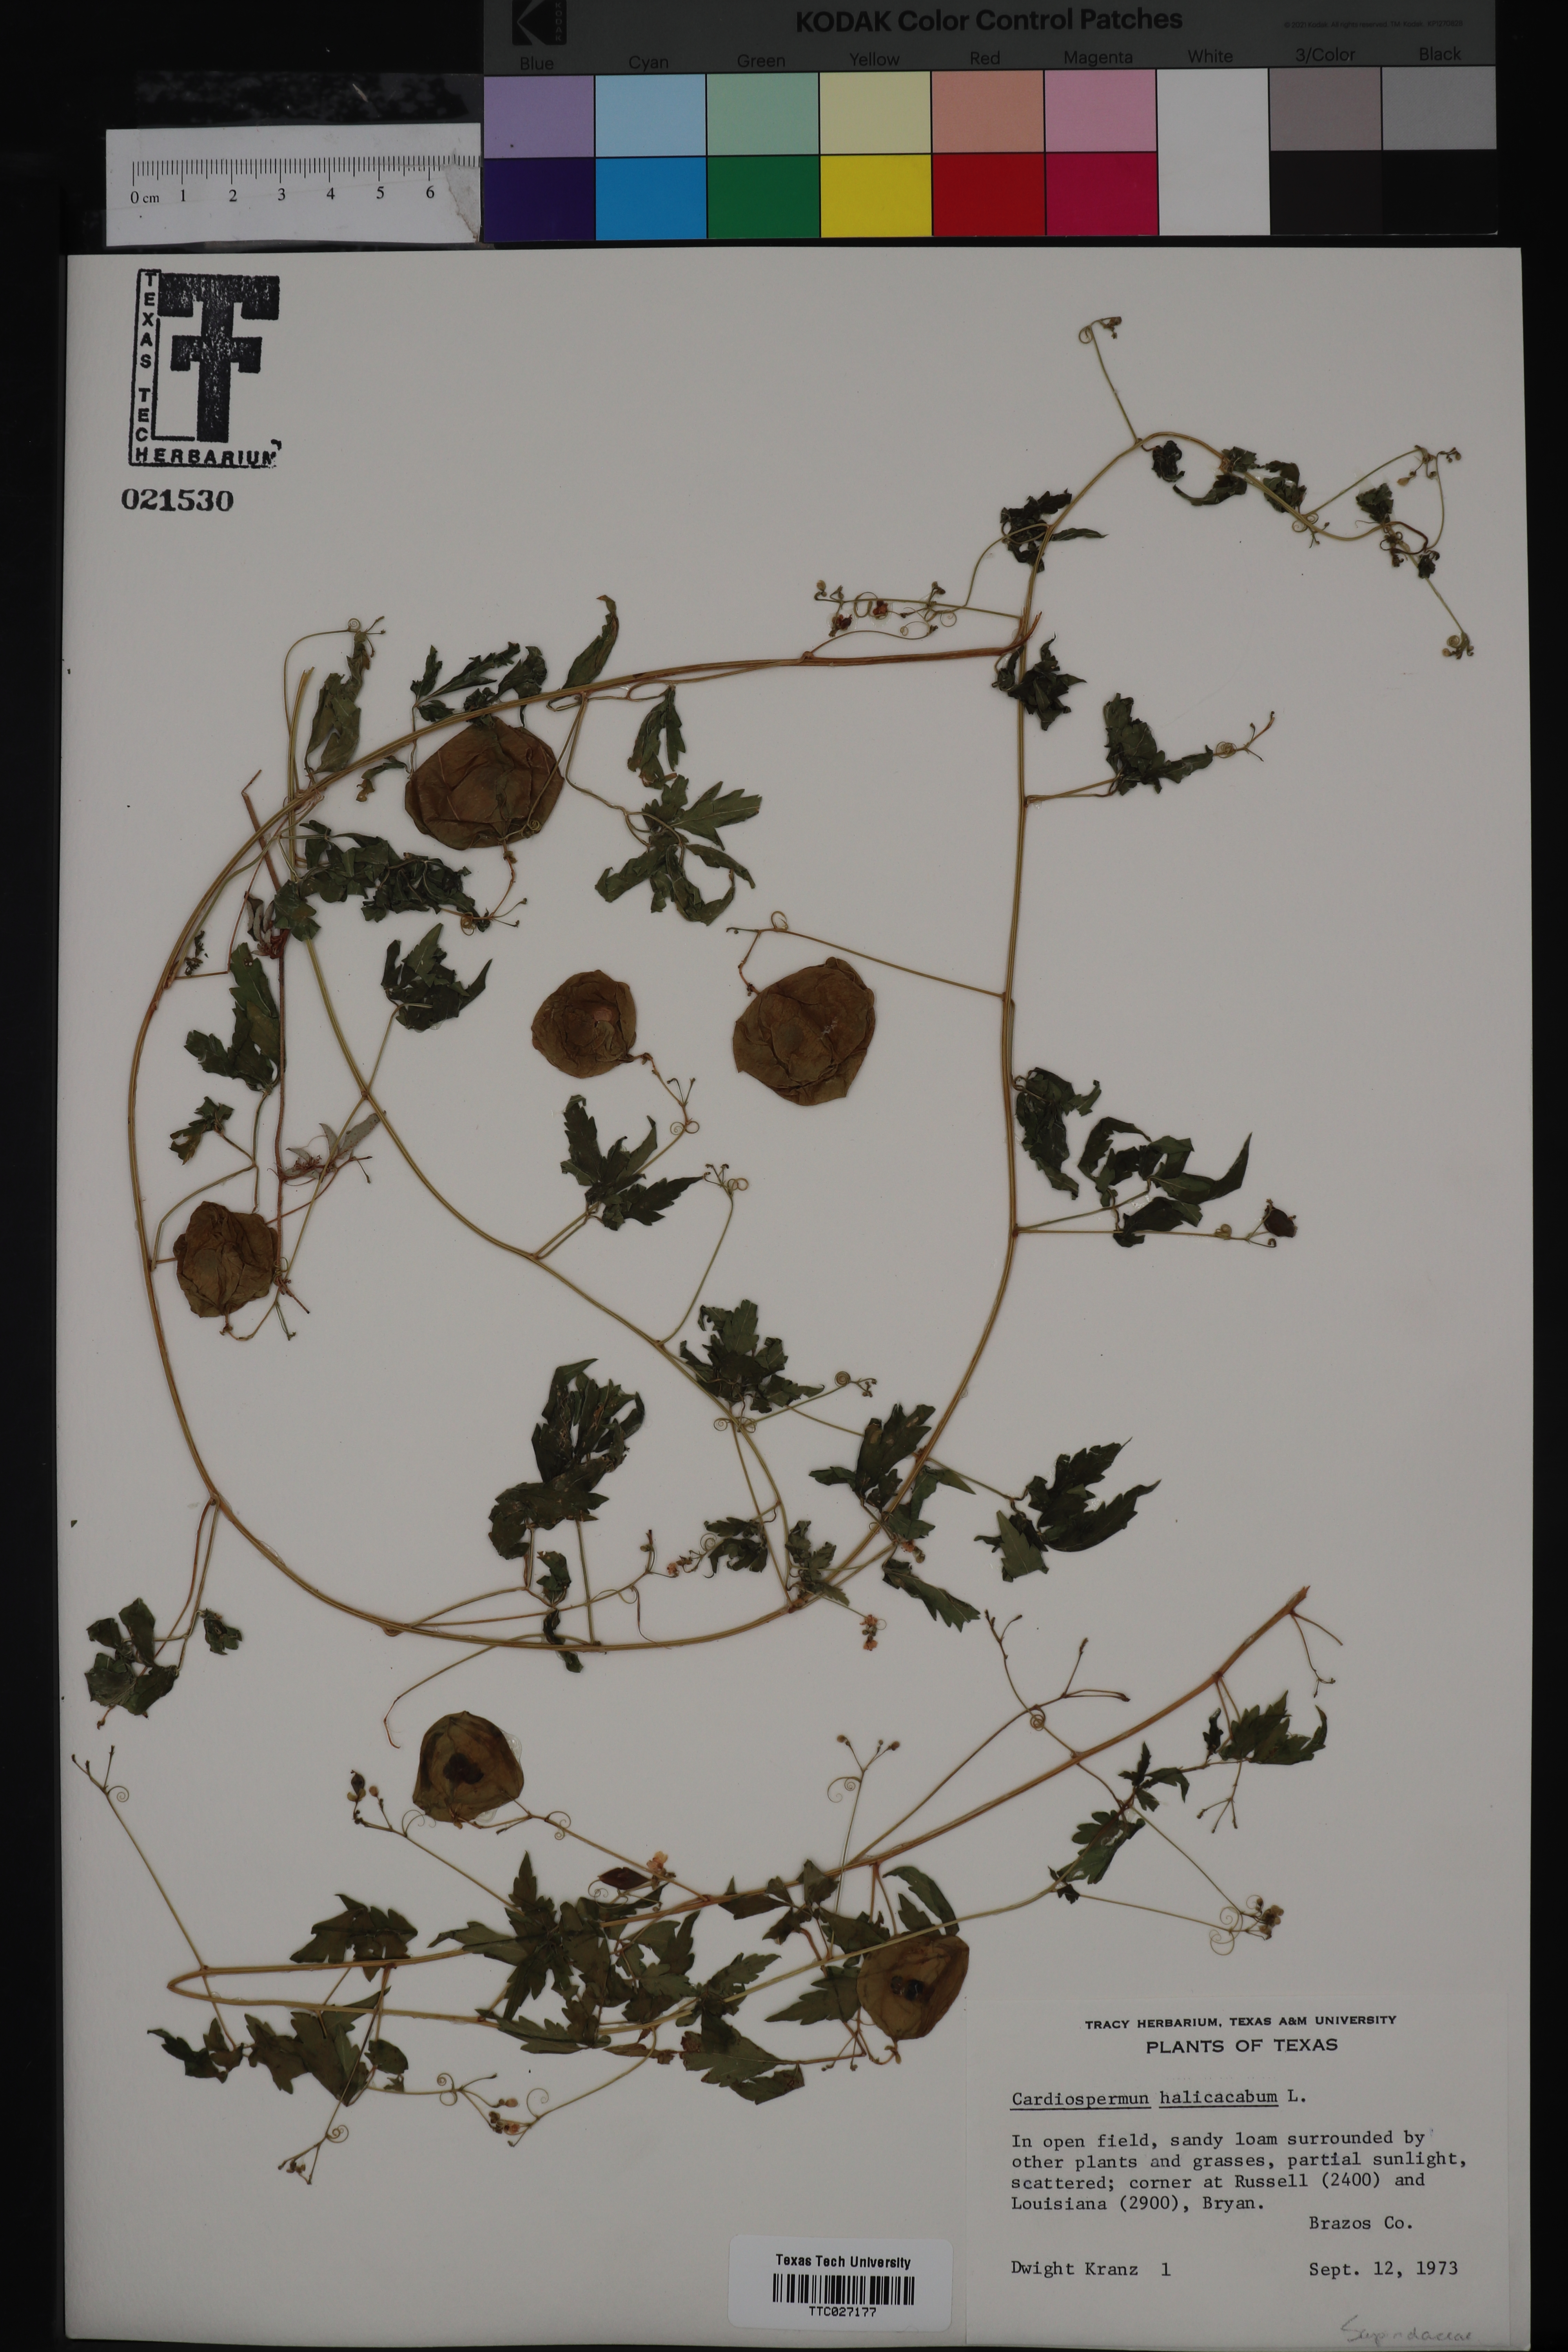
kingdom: Plantae
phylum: Tracheophyta
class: Magnoliopsida
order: Sapindales
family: Sapindaceae
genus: Cardiospermum
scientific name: Cardiospermum halicacabum
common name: Balloon vine
